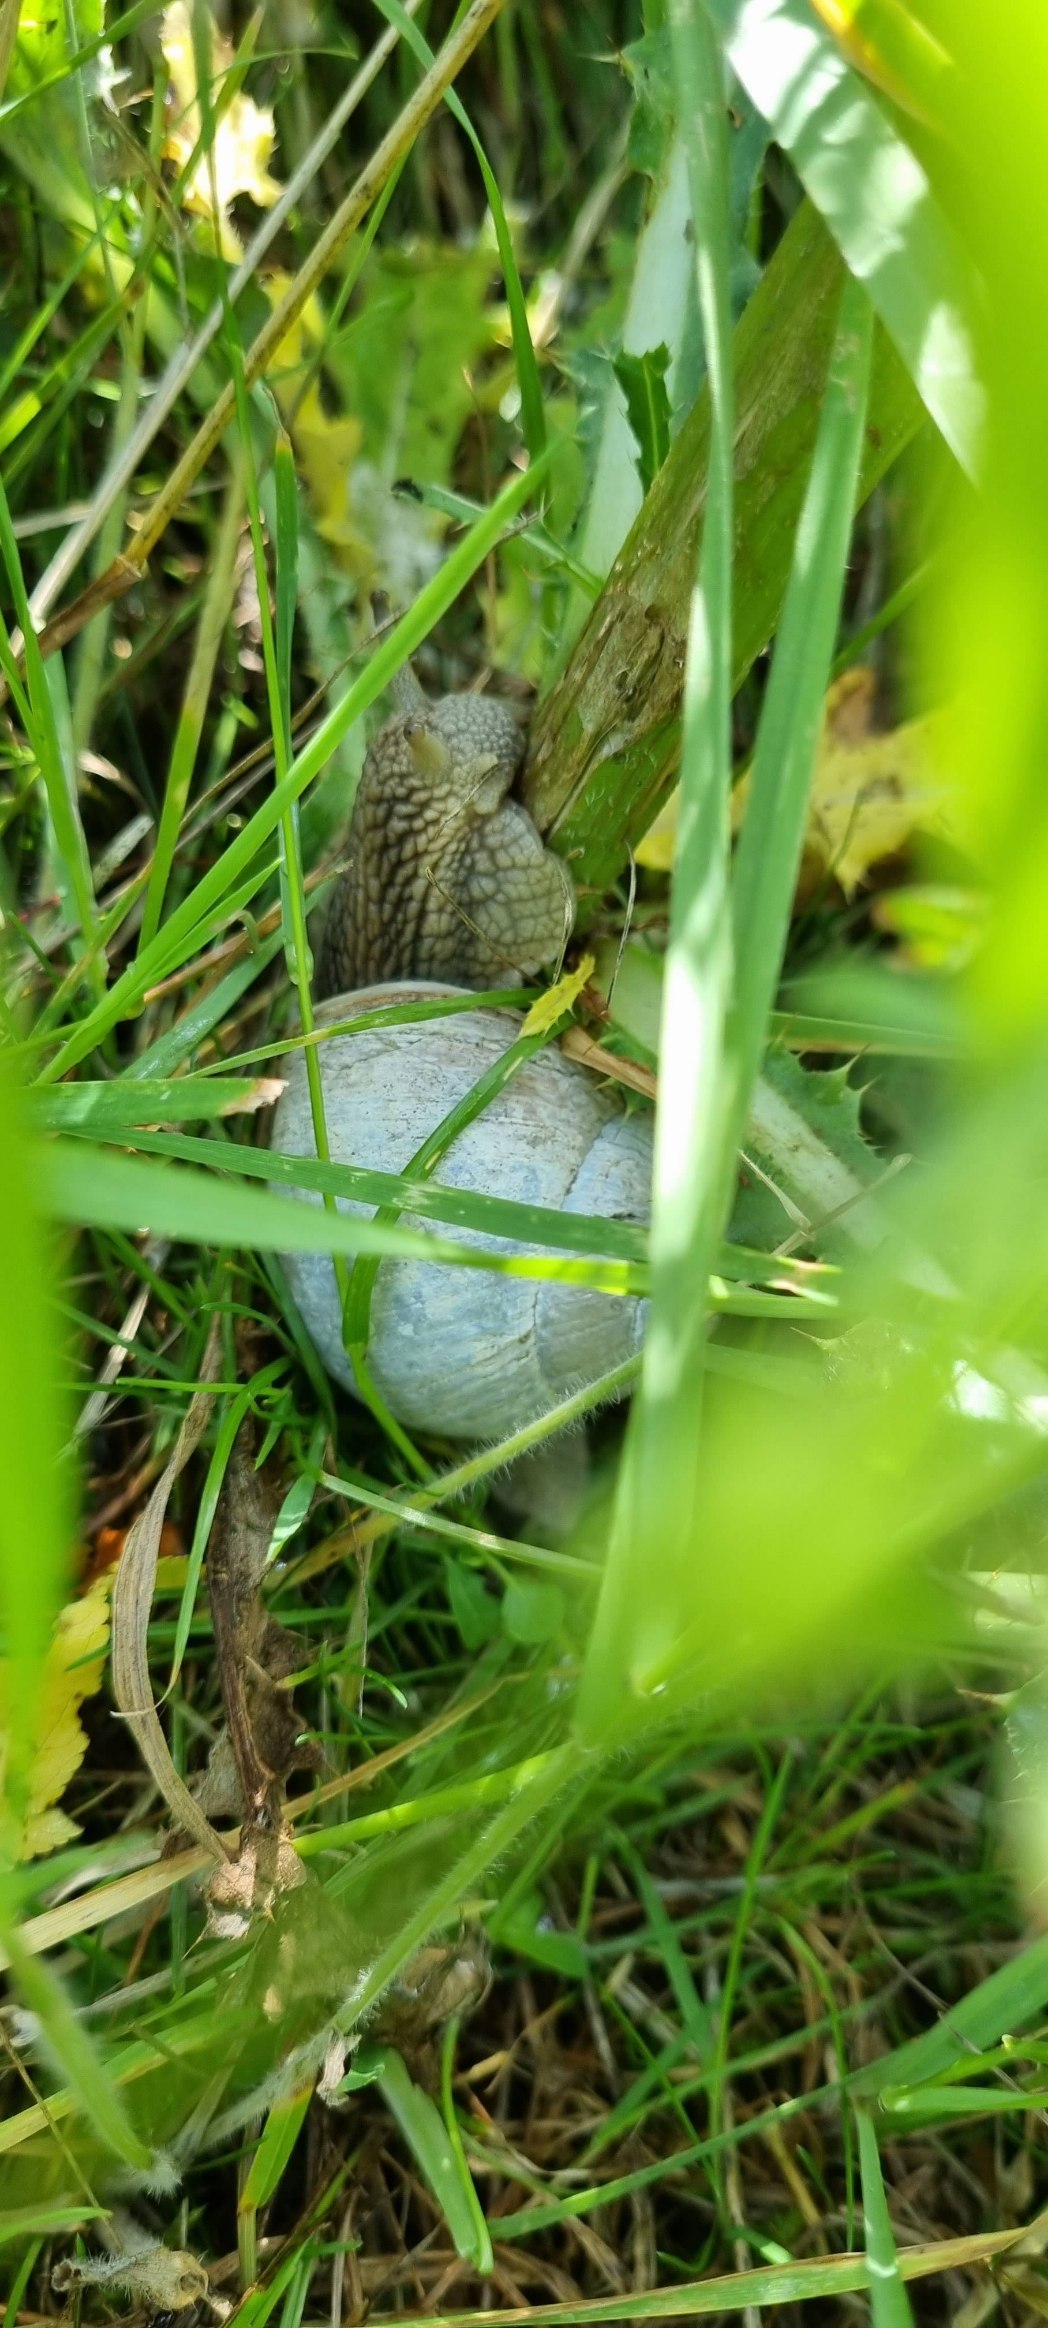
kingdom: Animalia
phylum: Mollusca
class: Gastropoda
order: Stylommatophora
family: Helicidae
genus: Helix
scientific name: Helix pomatia
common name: Vinbjergsnegl
